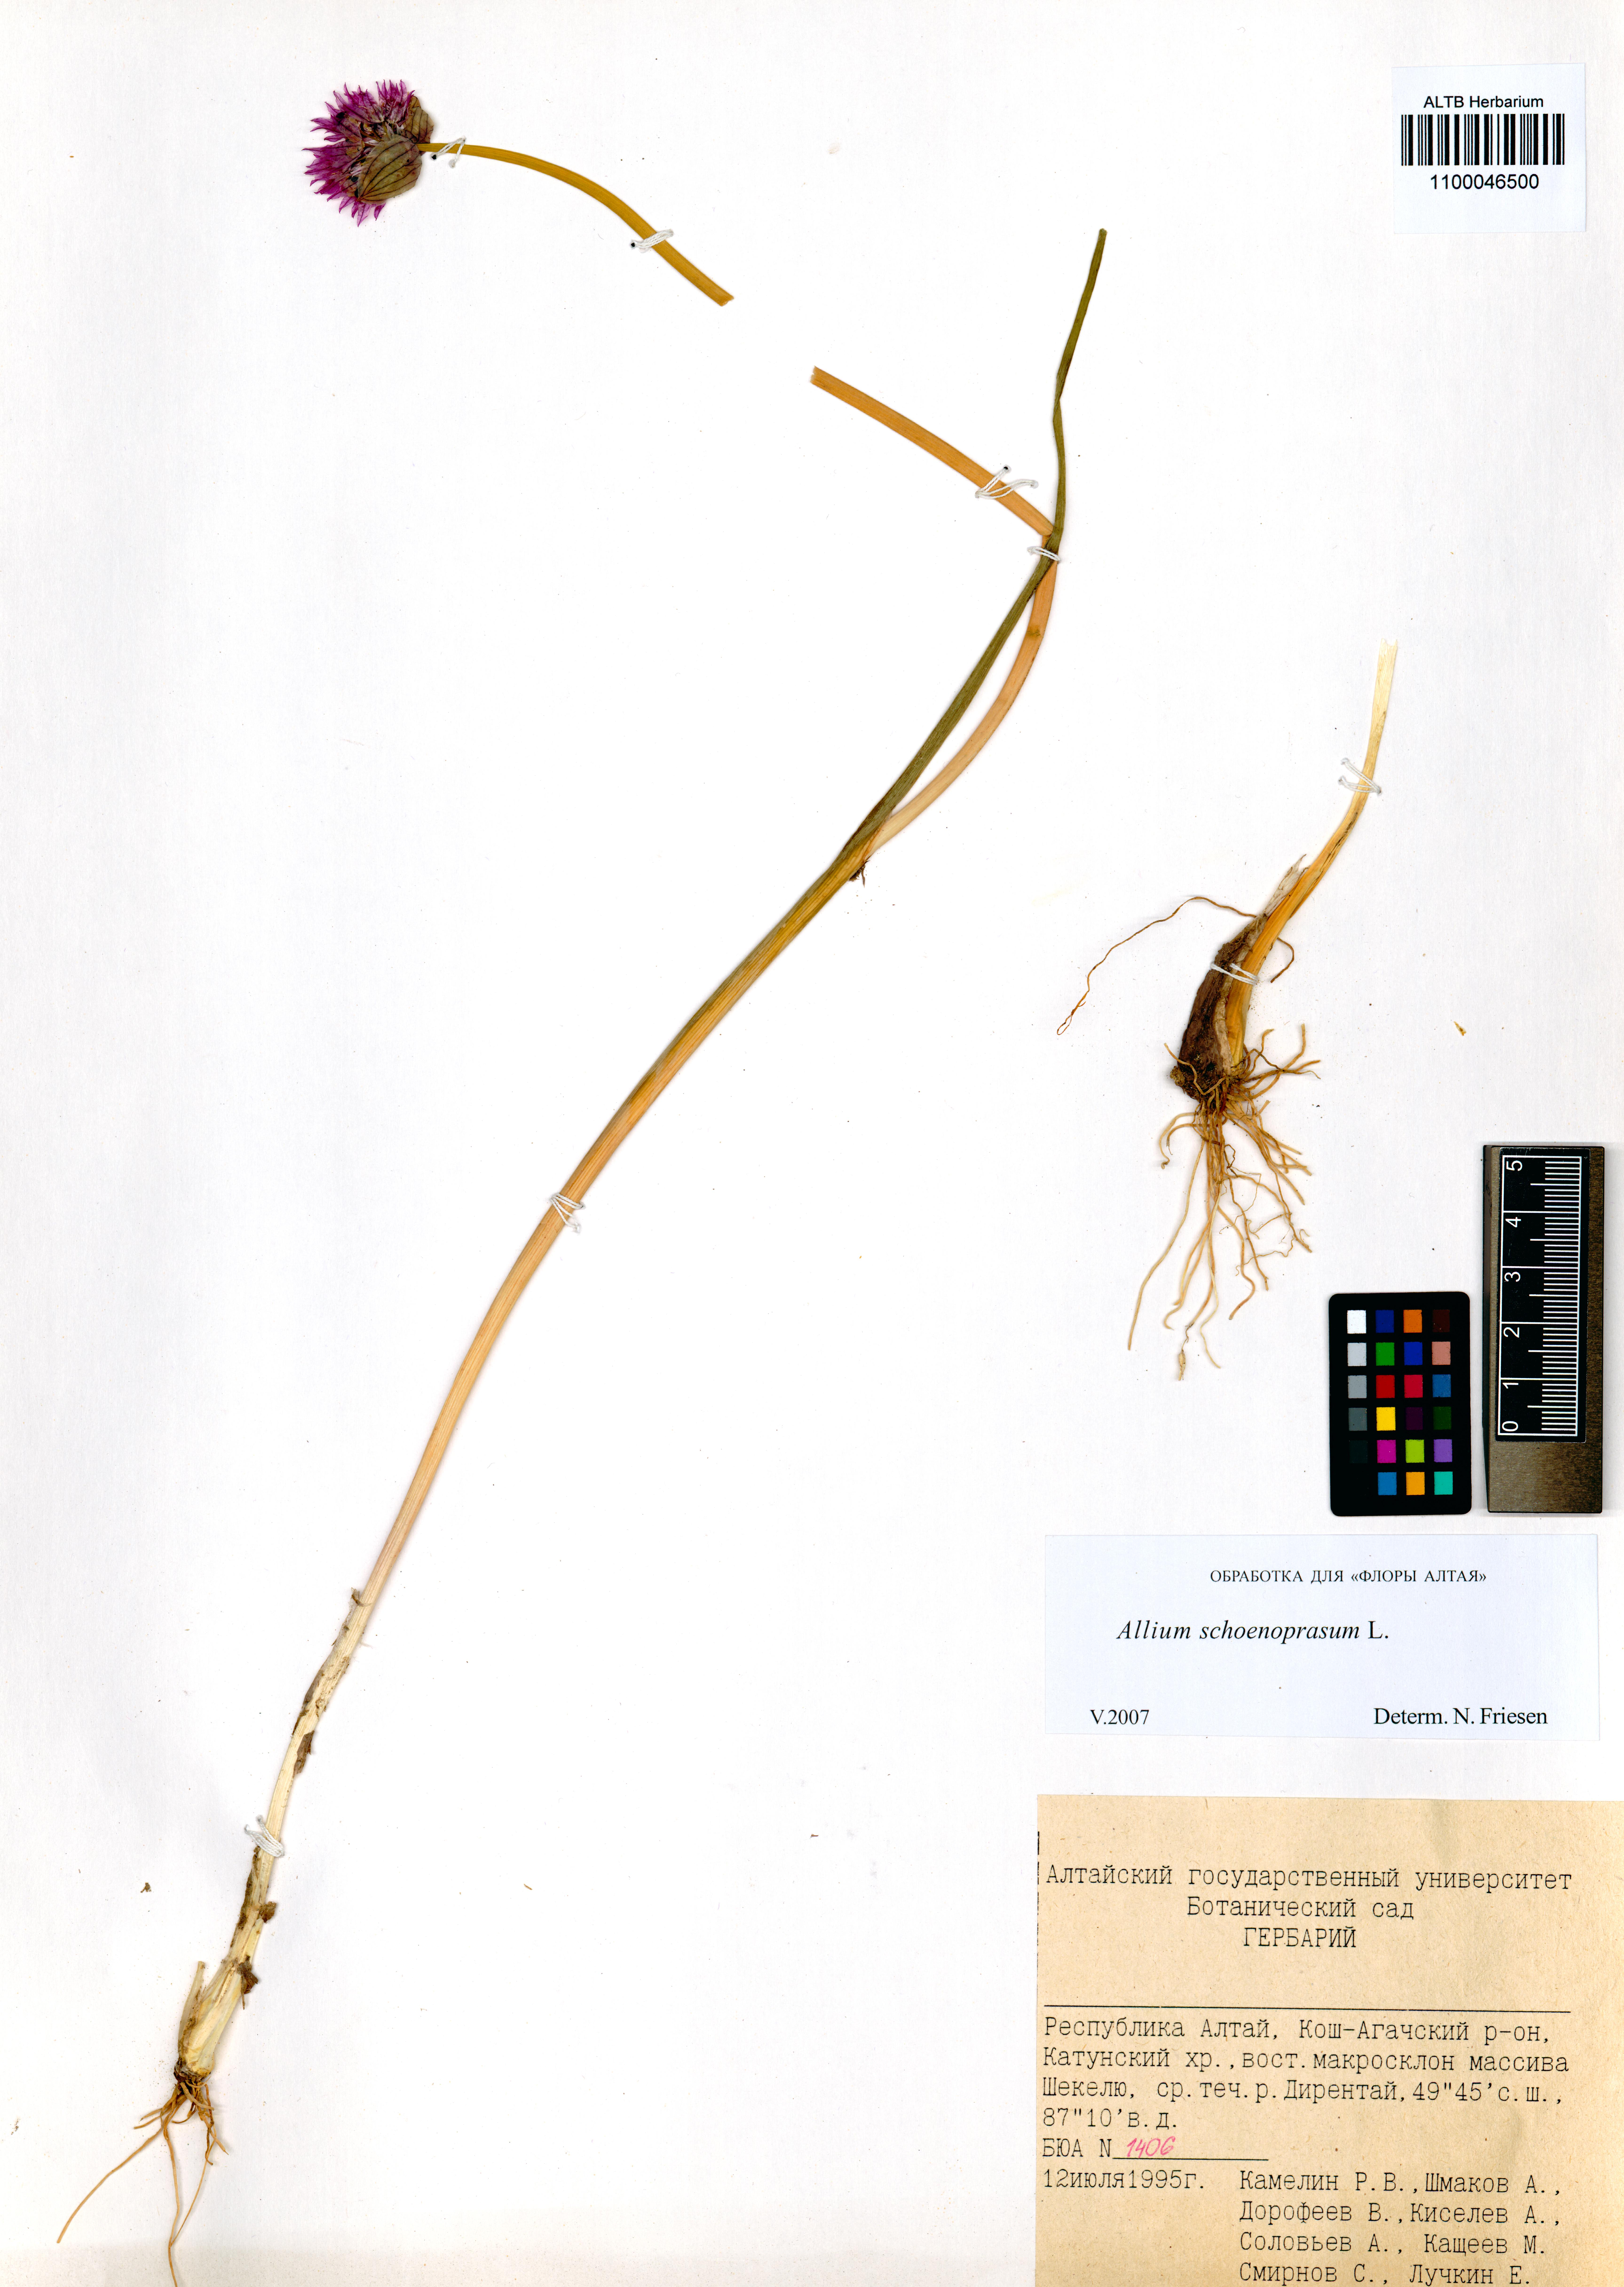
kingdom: Plantae
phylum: Tracheophyta
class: Liliopsida
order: Asparagales
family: Amaryllidaceae
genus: Allium
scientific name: Allium schoenoprasum
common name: Chives
